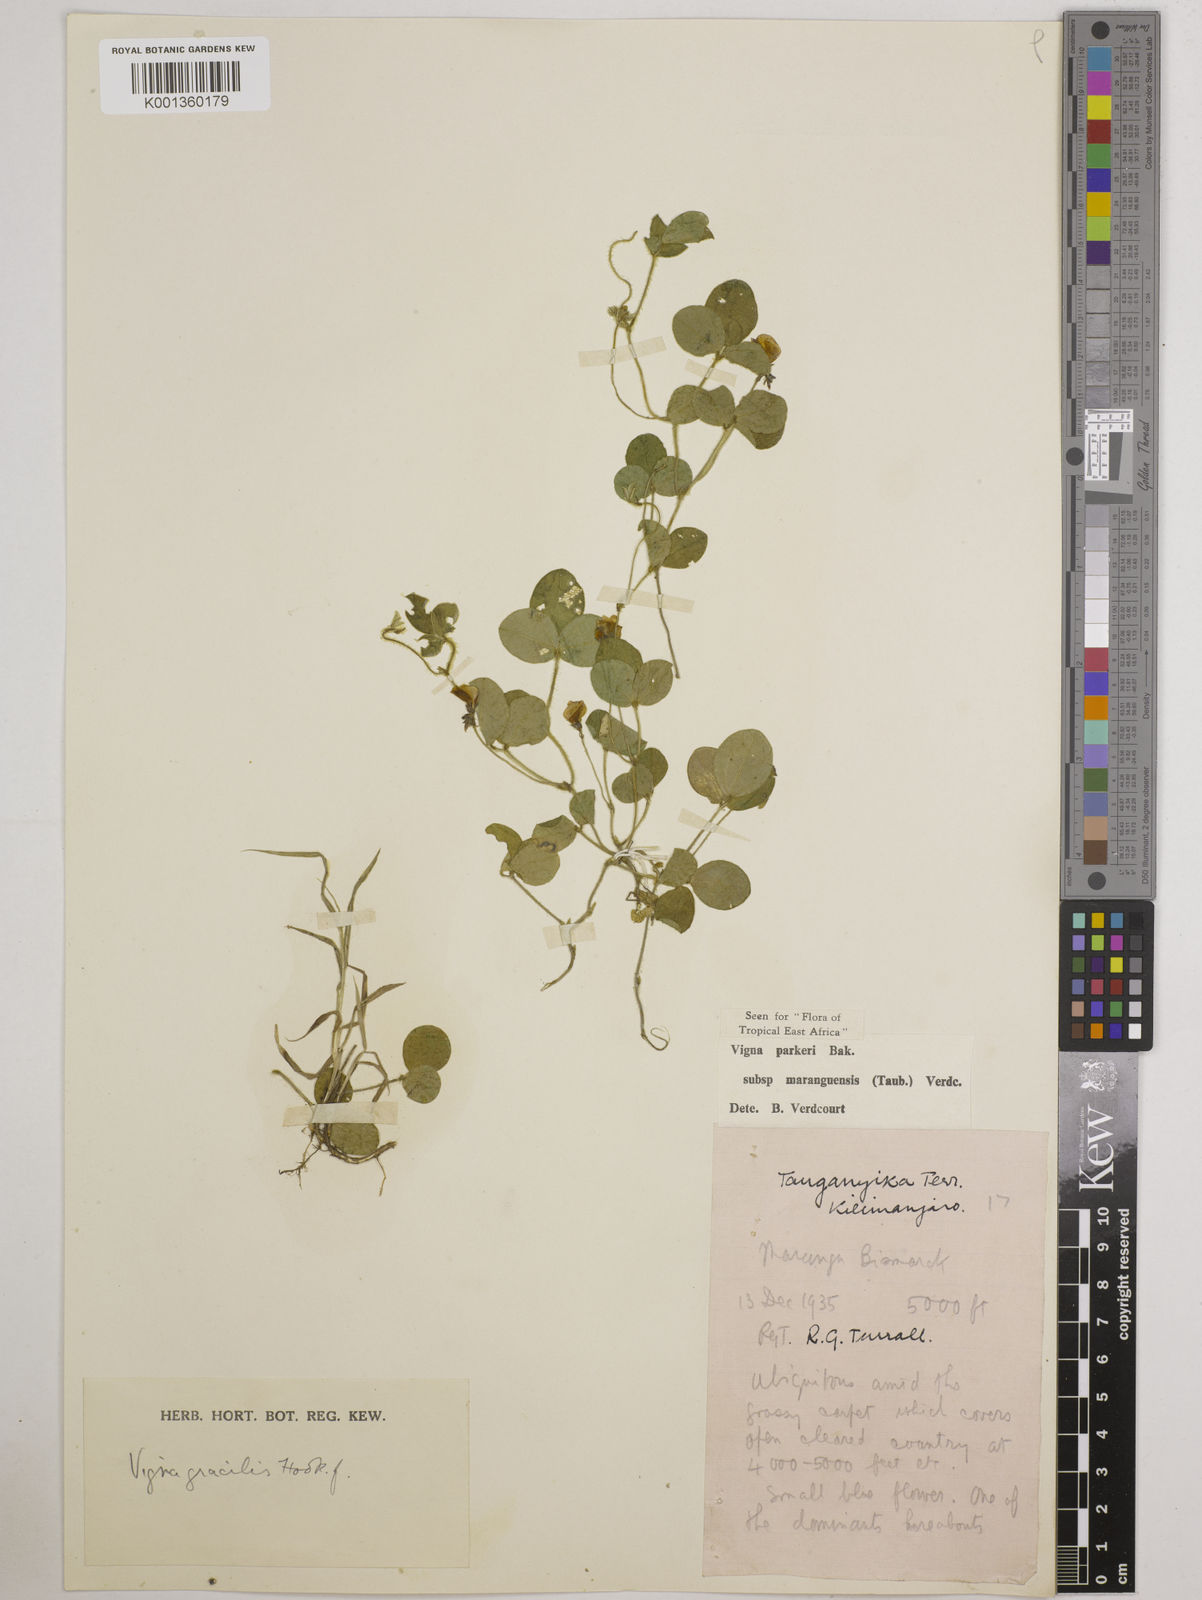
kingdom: Plantae
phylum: Tracheophyta
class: Magnoliopsida
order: Fabales
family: Fabaceae
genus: Vigna
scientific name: Vigna
